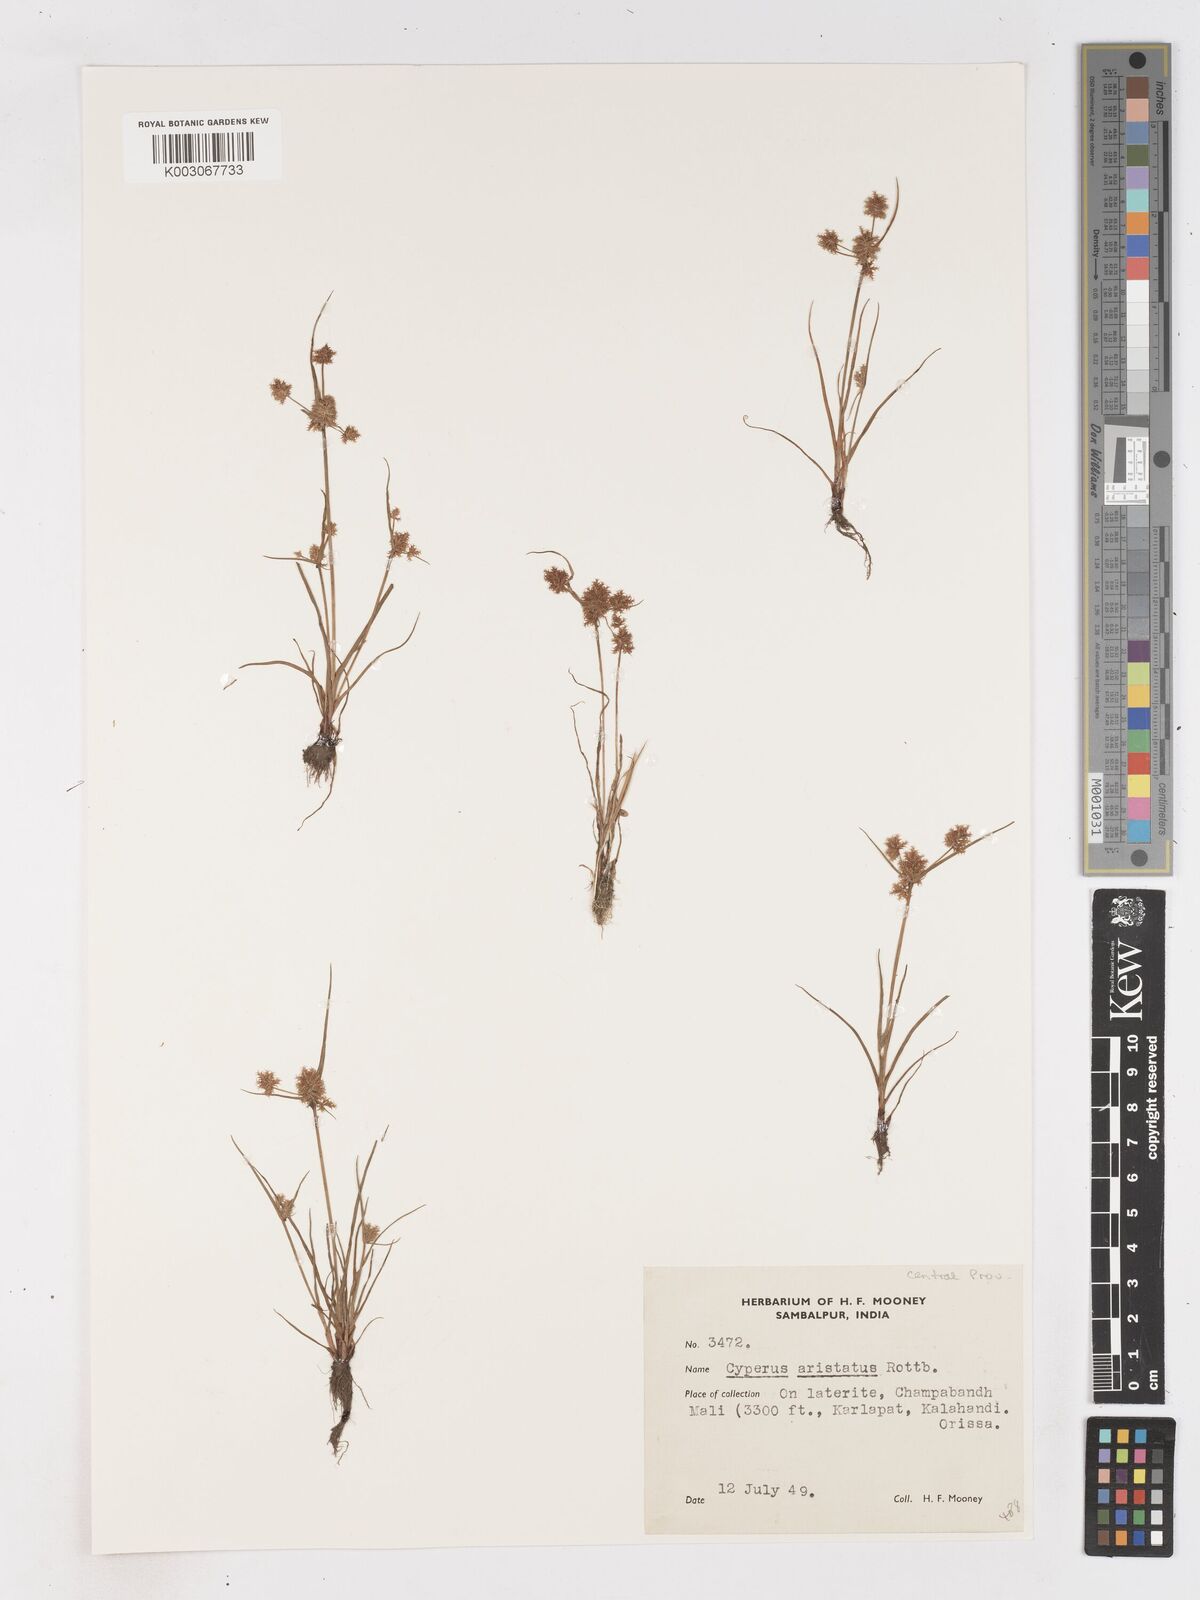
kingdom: Plantae
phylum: Tracheophyta
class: Liliopsida
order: Poales
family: Cyperaceae
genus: Cyperus
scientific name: Cyperus squarrosus
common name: Awned cyperus
